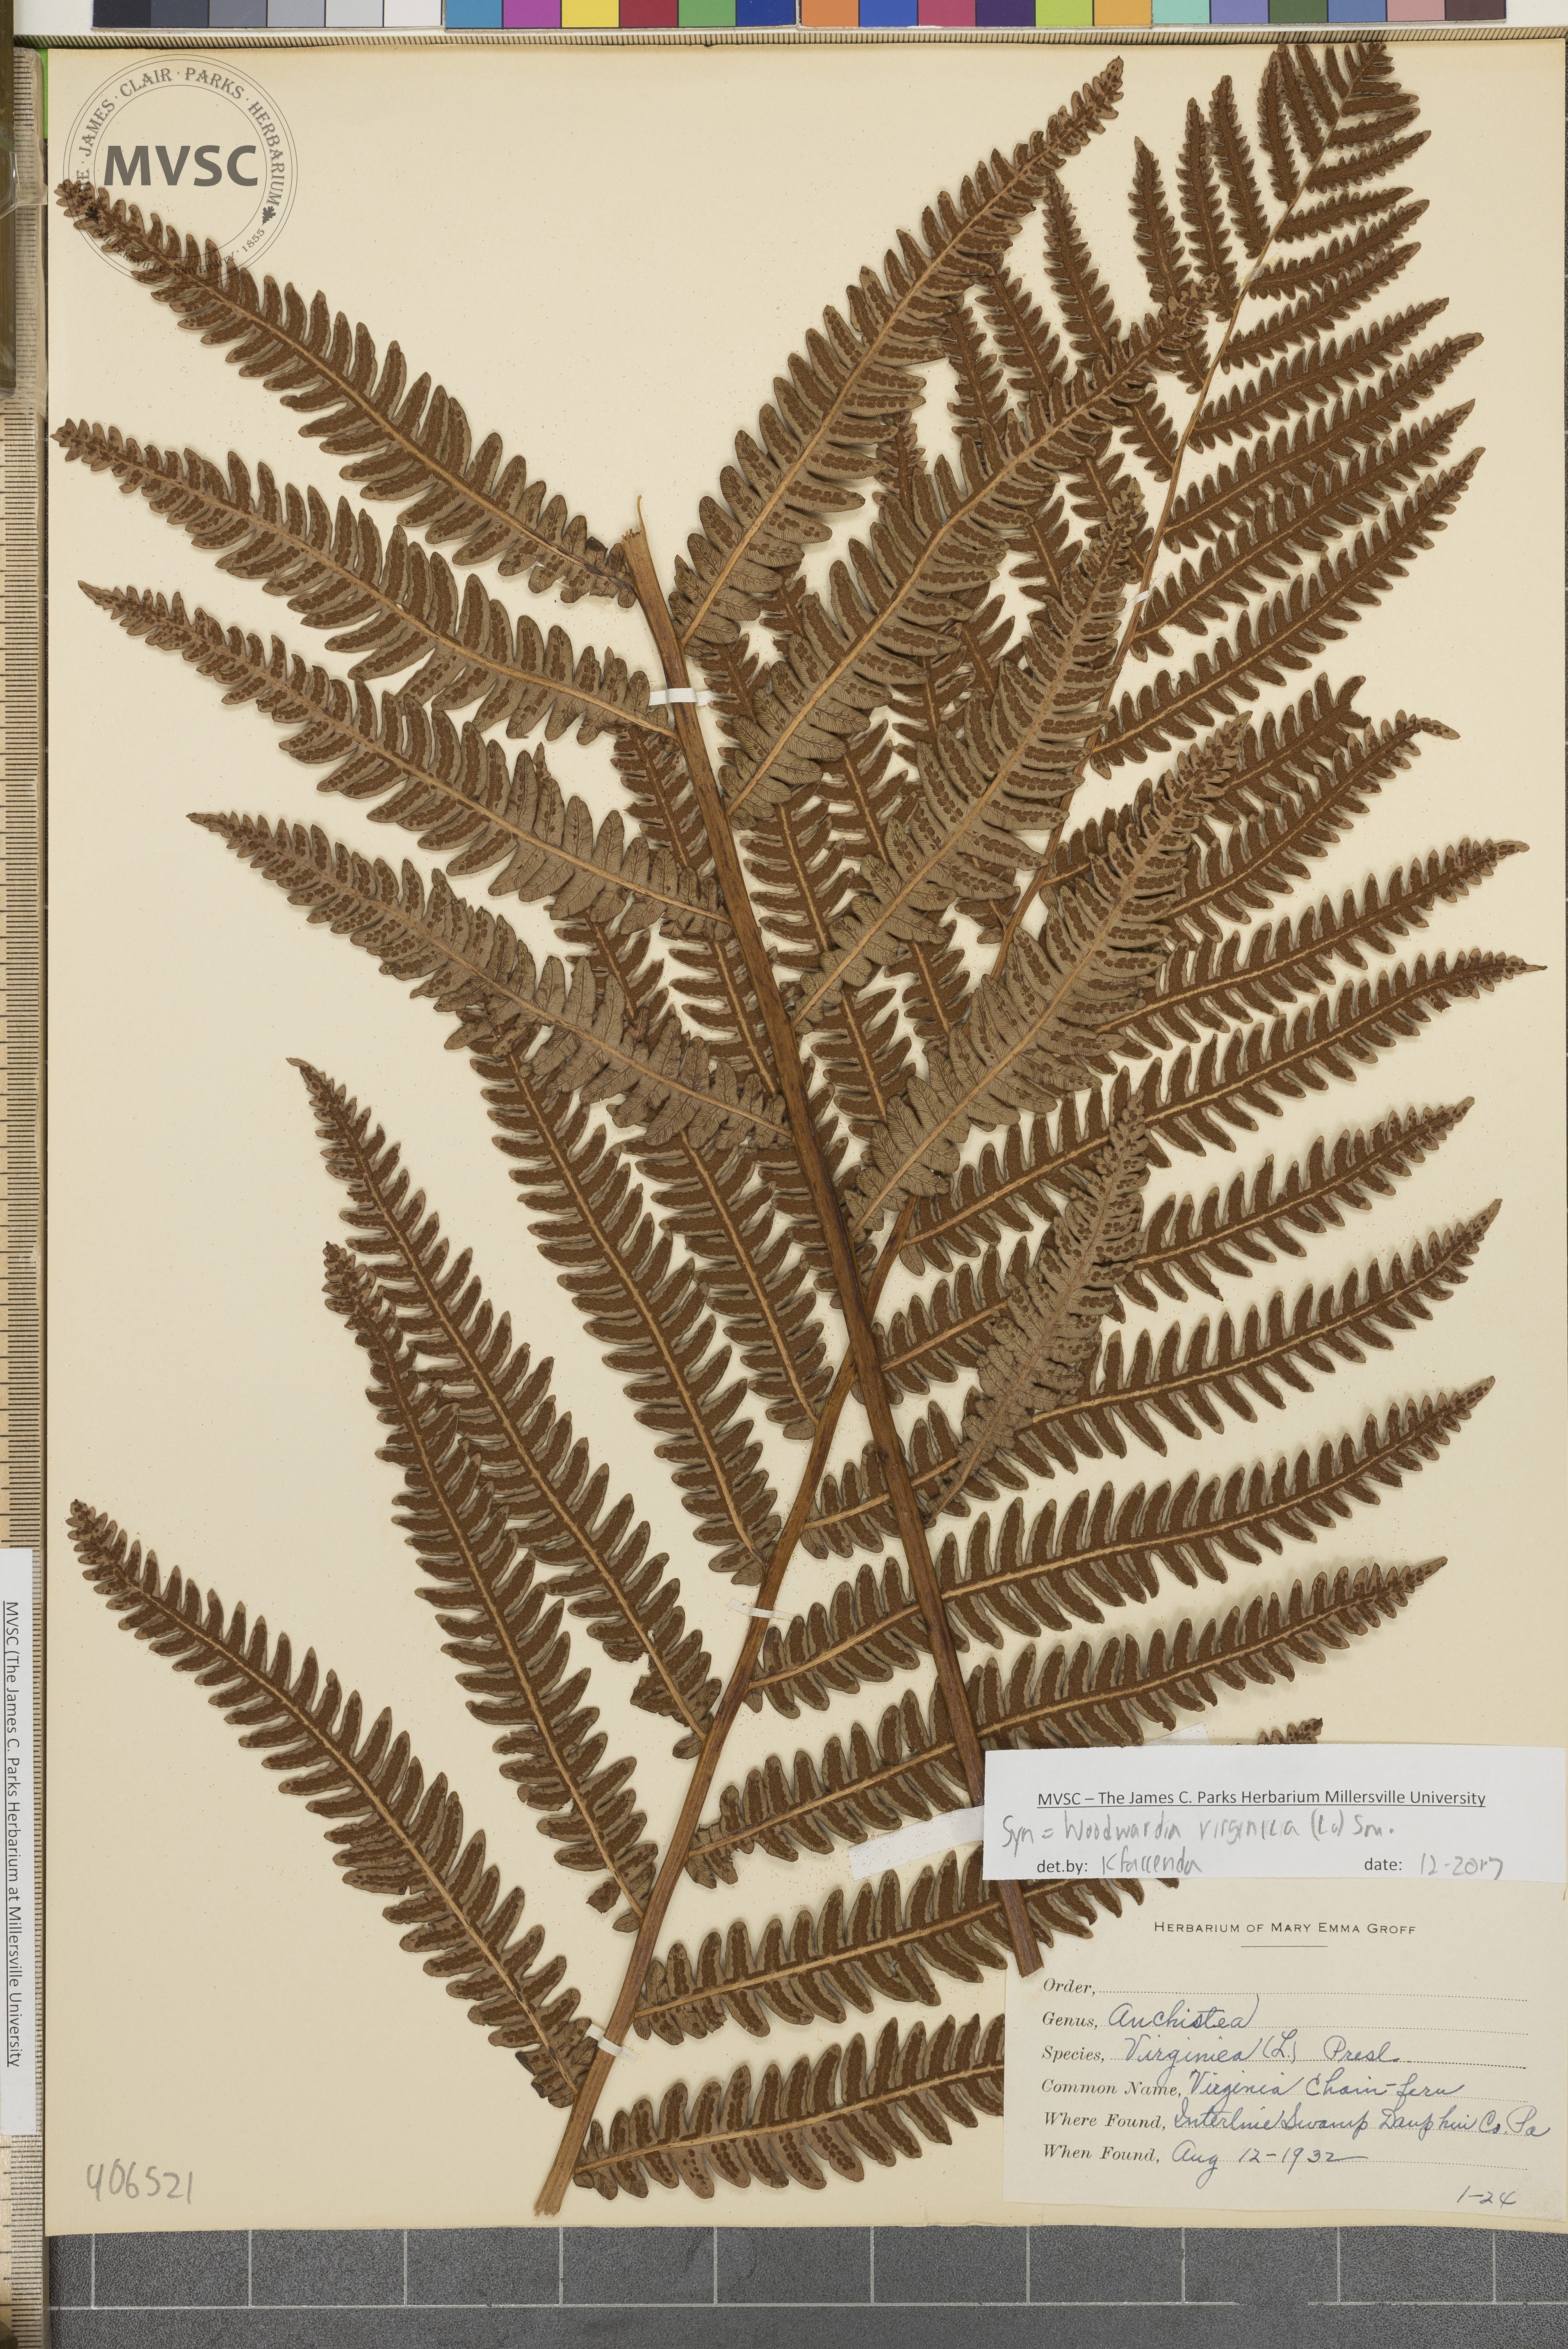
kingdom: Plantae
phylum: Tracheophyta
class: Polypodiopsida
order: Polypodiales
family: Blechnaceae
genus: Anchistea
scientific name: Anchistea virginica
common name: Virginia chain fern
